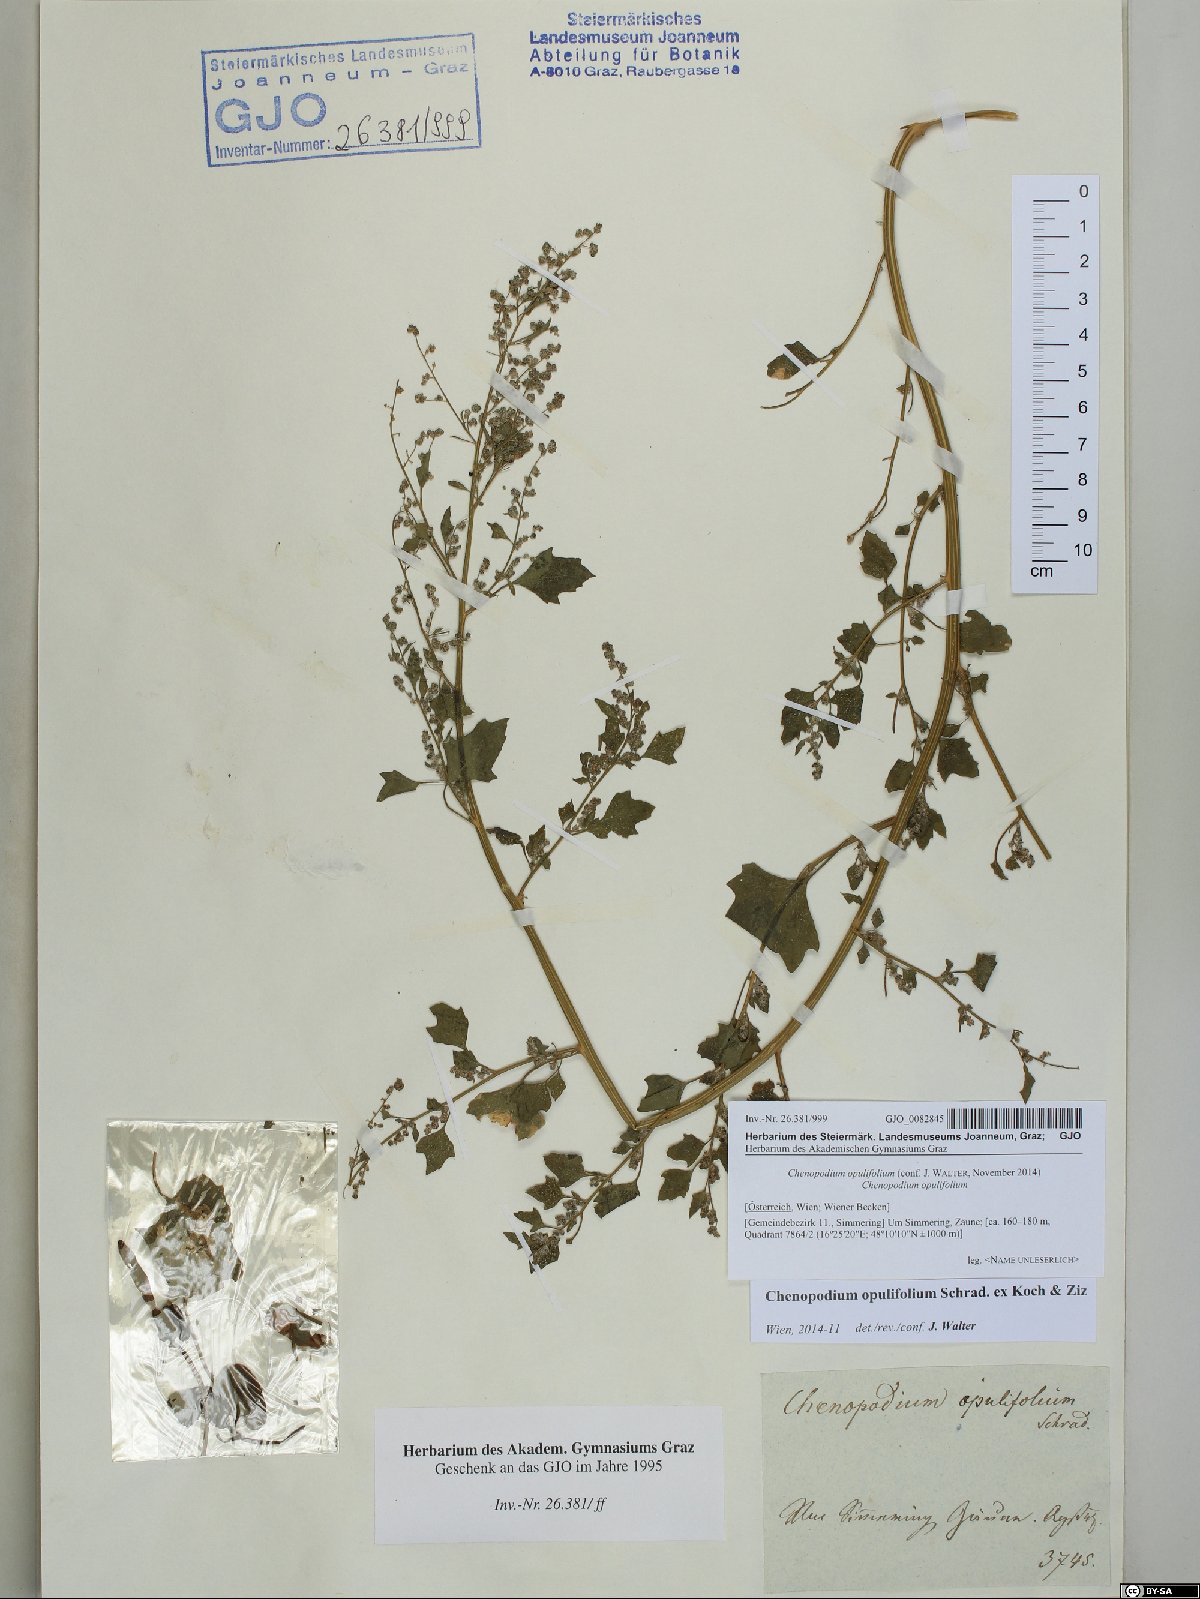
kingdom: Plantae
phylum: Tracheophyta
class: Magnoliopsida
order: Caryophyllales
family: Amaranthaceae
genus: Chenopodium
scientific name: Chenopodium opulifolium
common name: Grey goosefoot
